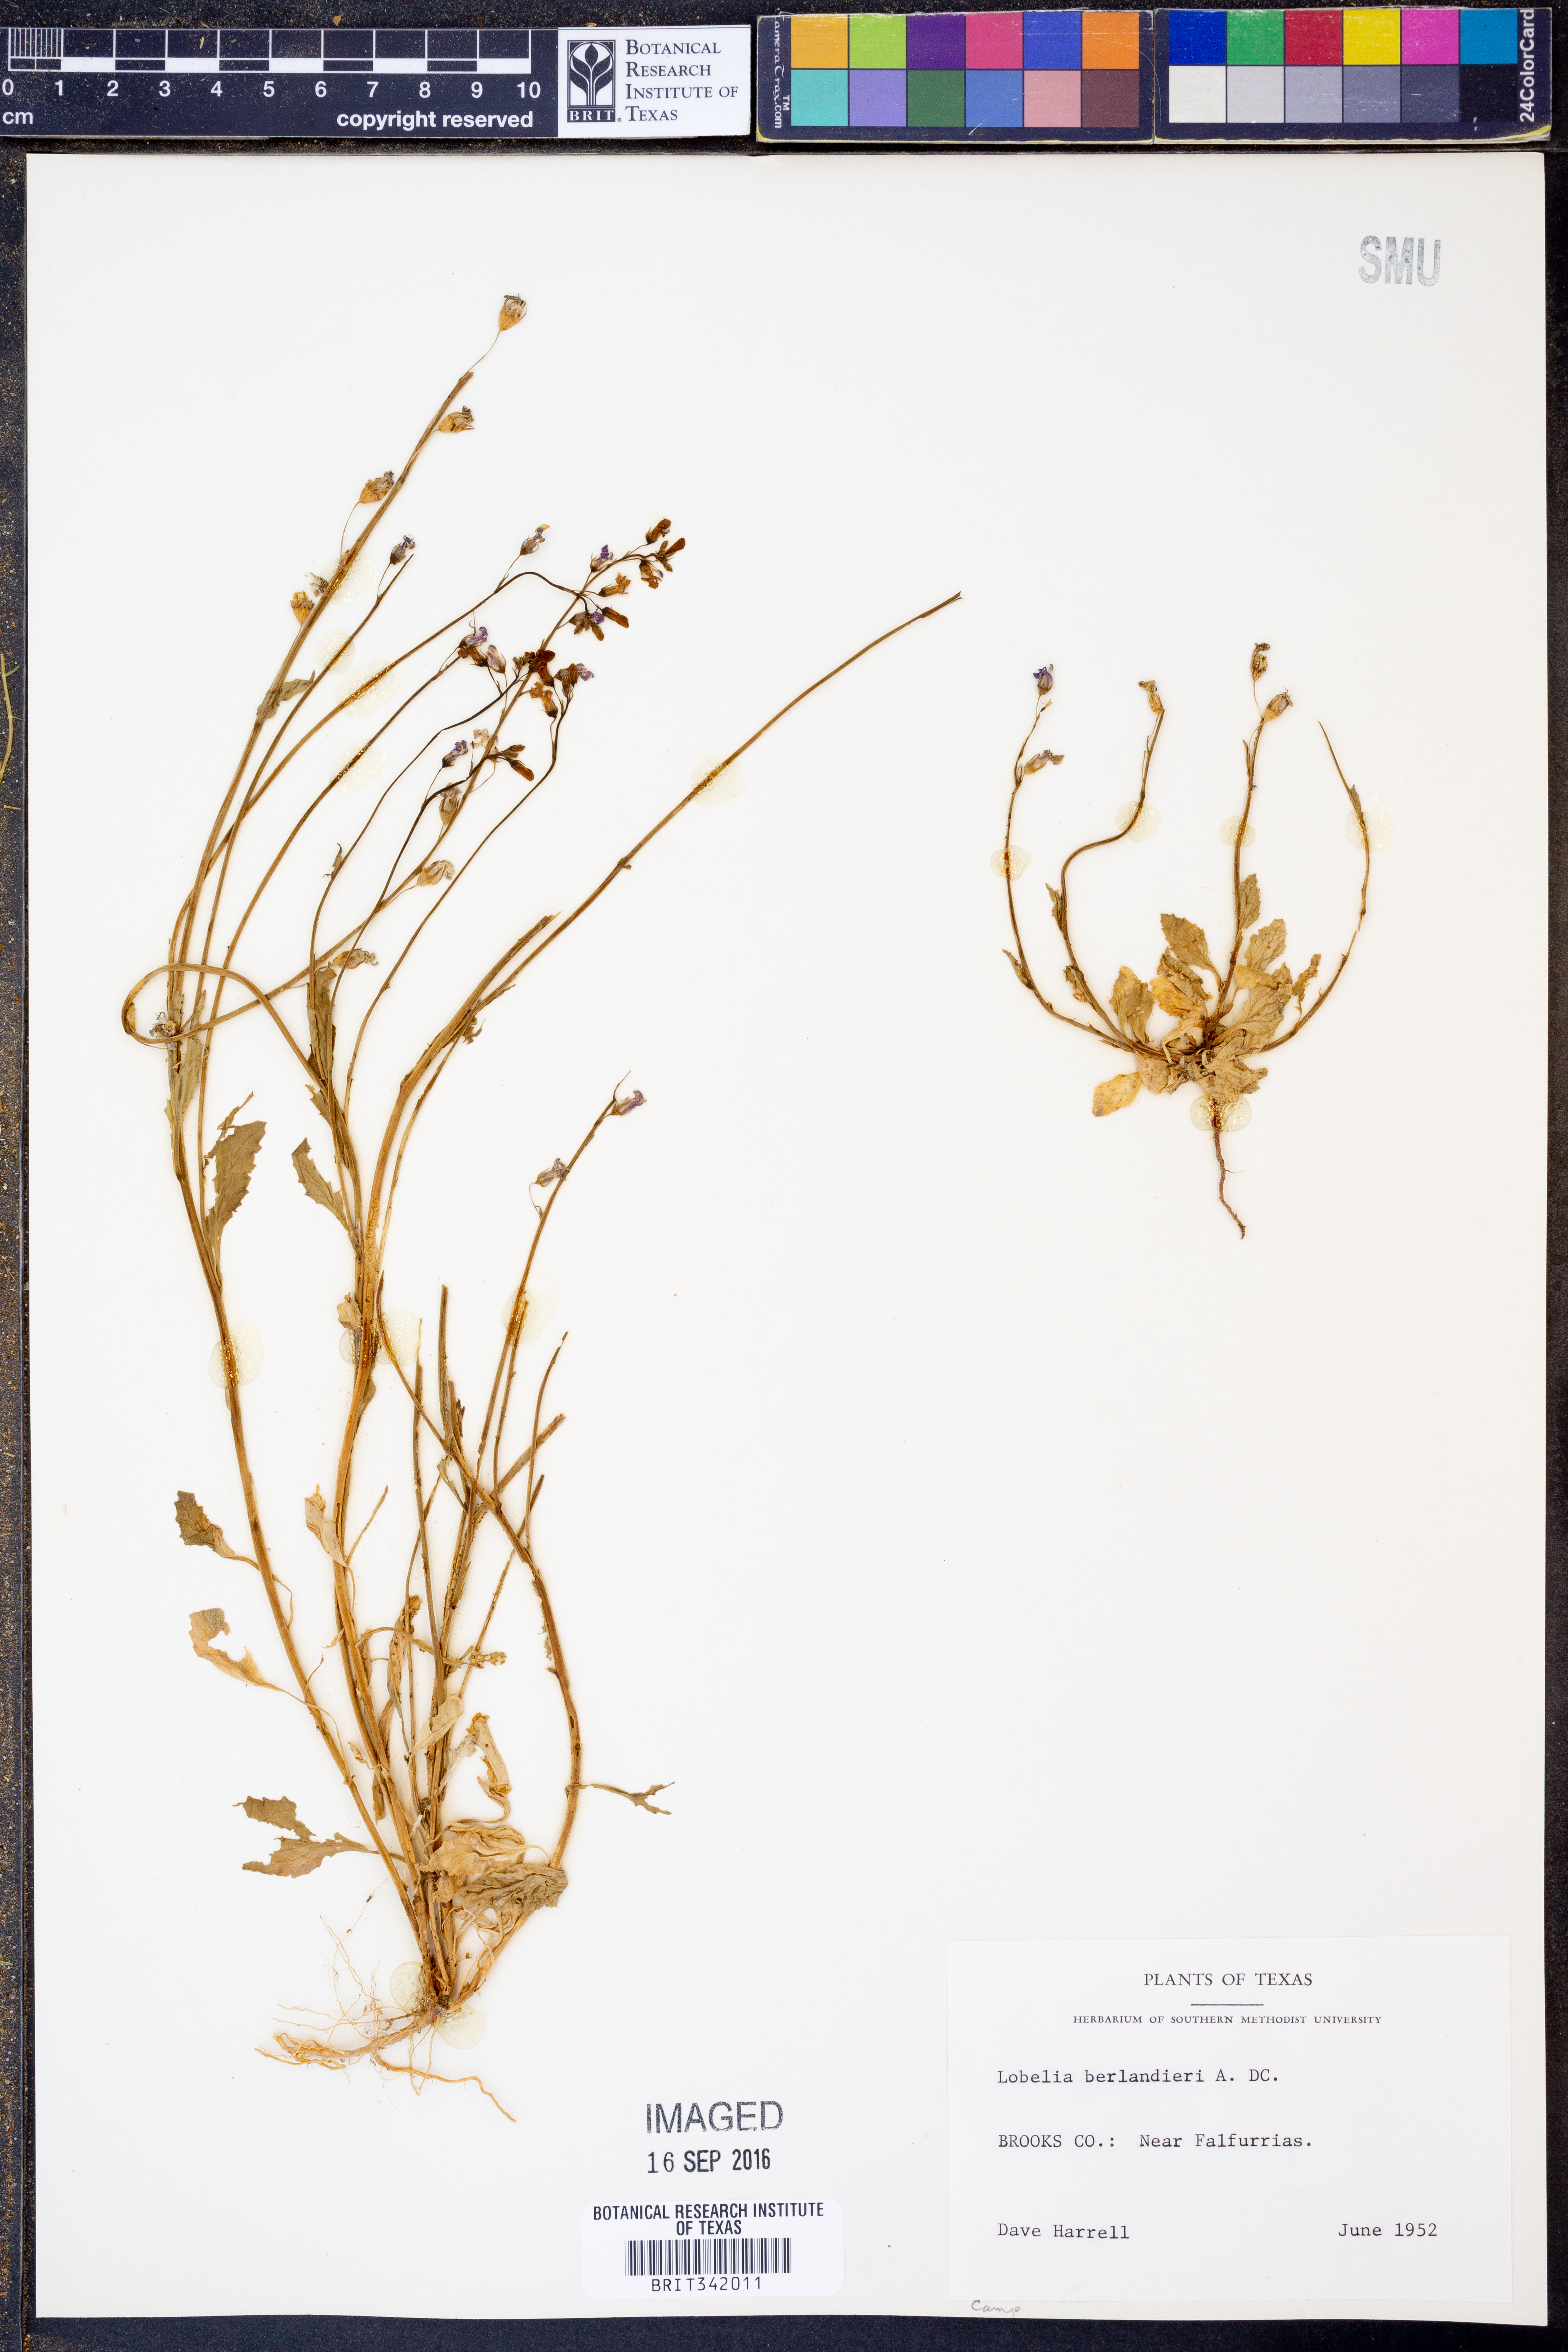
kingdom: Plantae
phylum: Tracheophyta
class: Magnoliopsida
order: Asterales
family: Campanulaceae
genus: Lobelia
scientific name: Lobelia berlandieri
